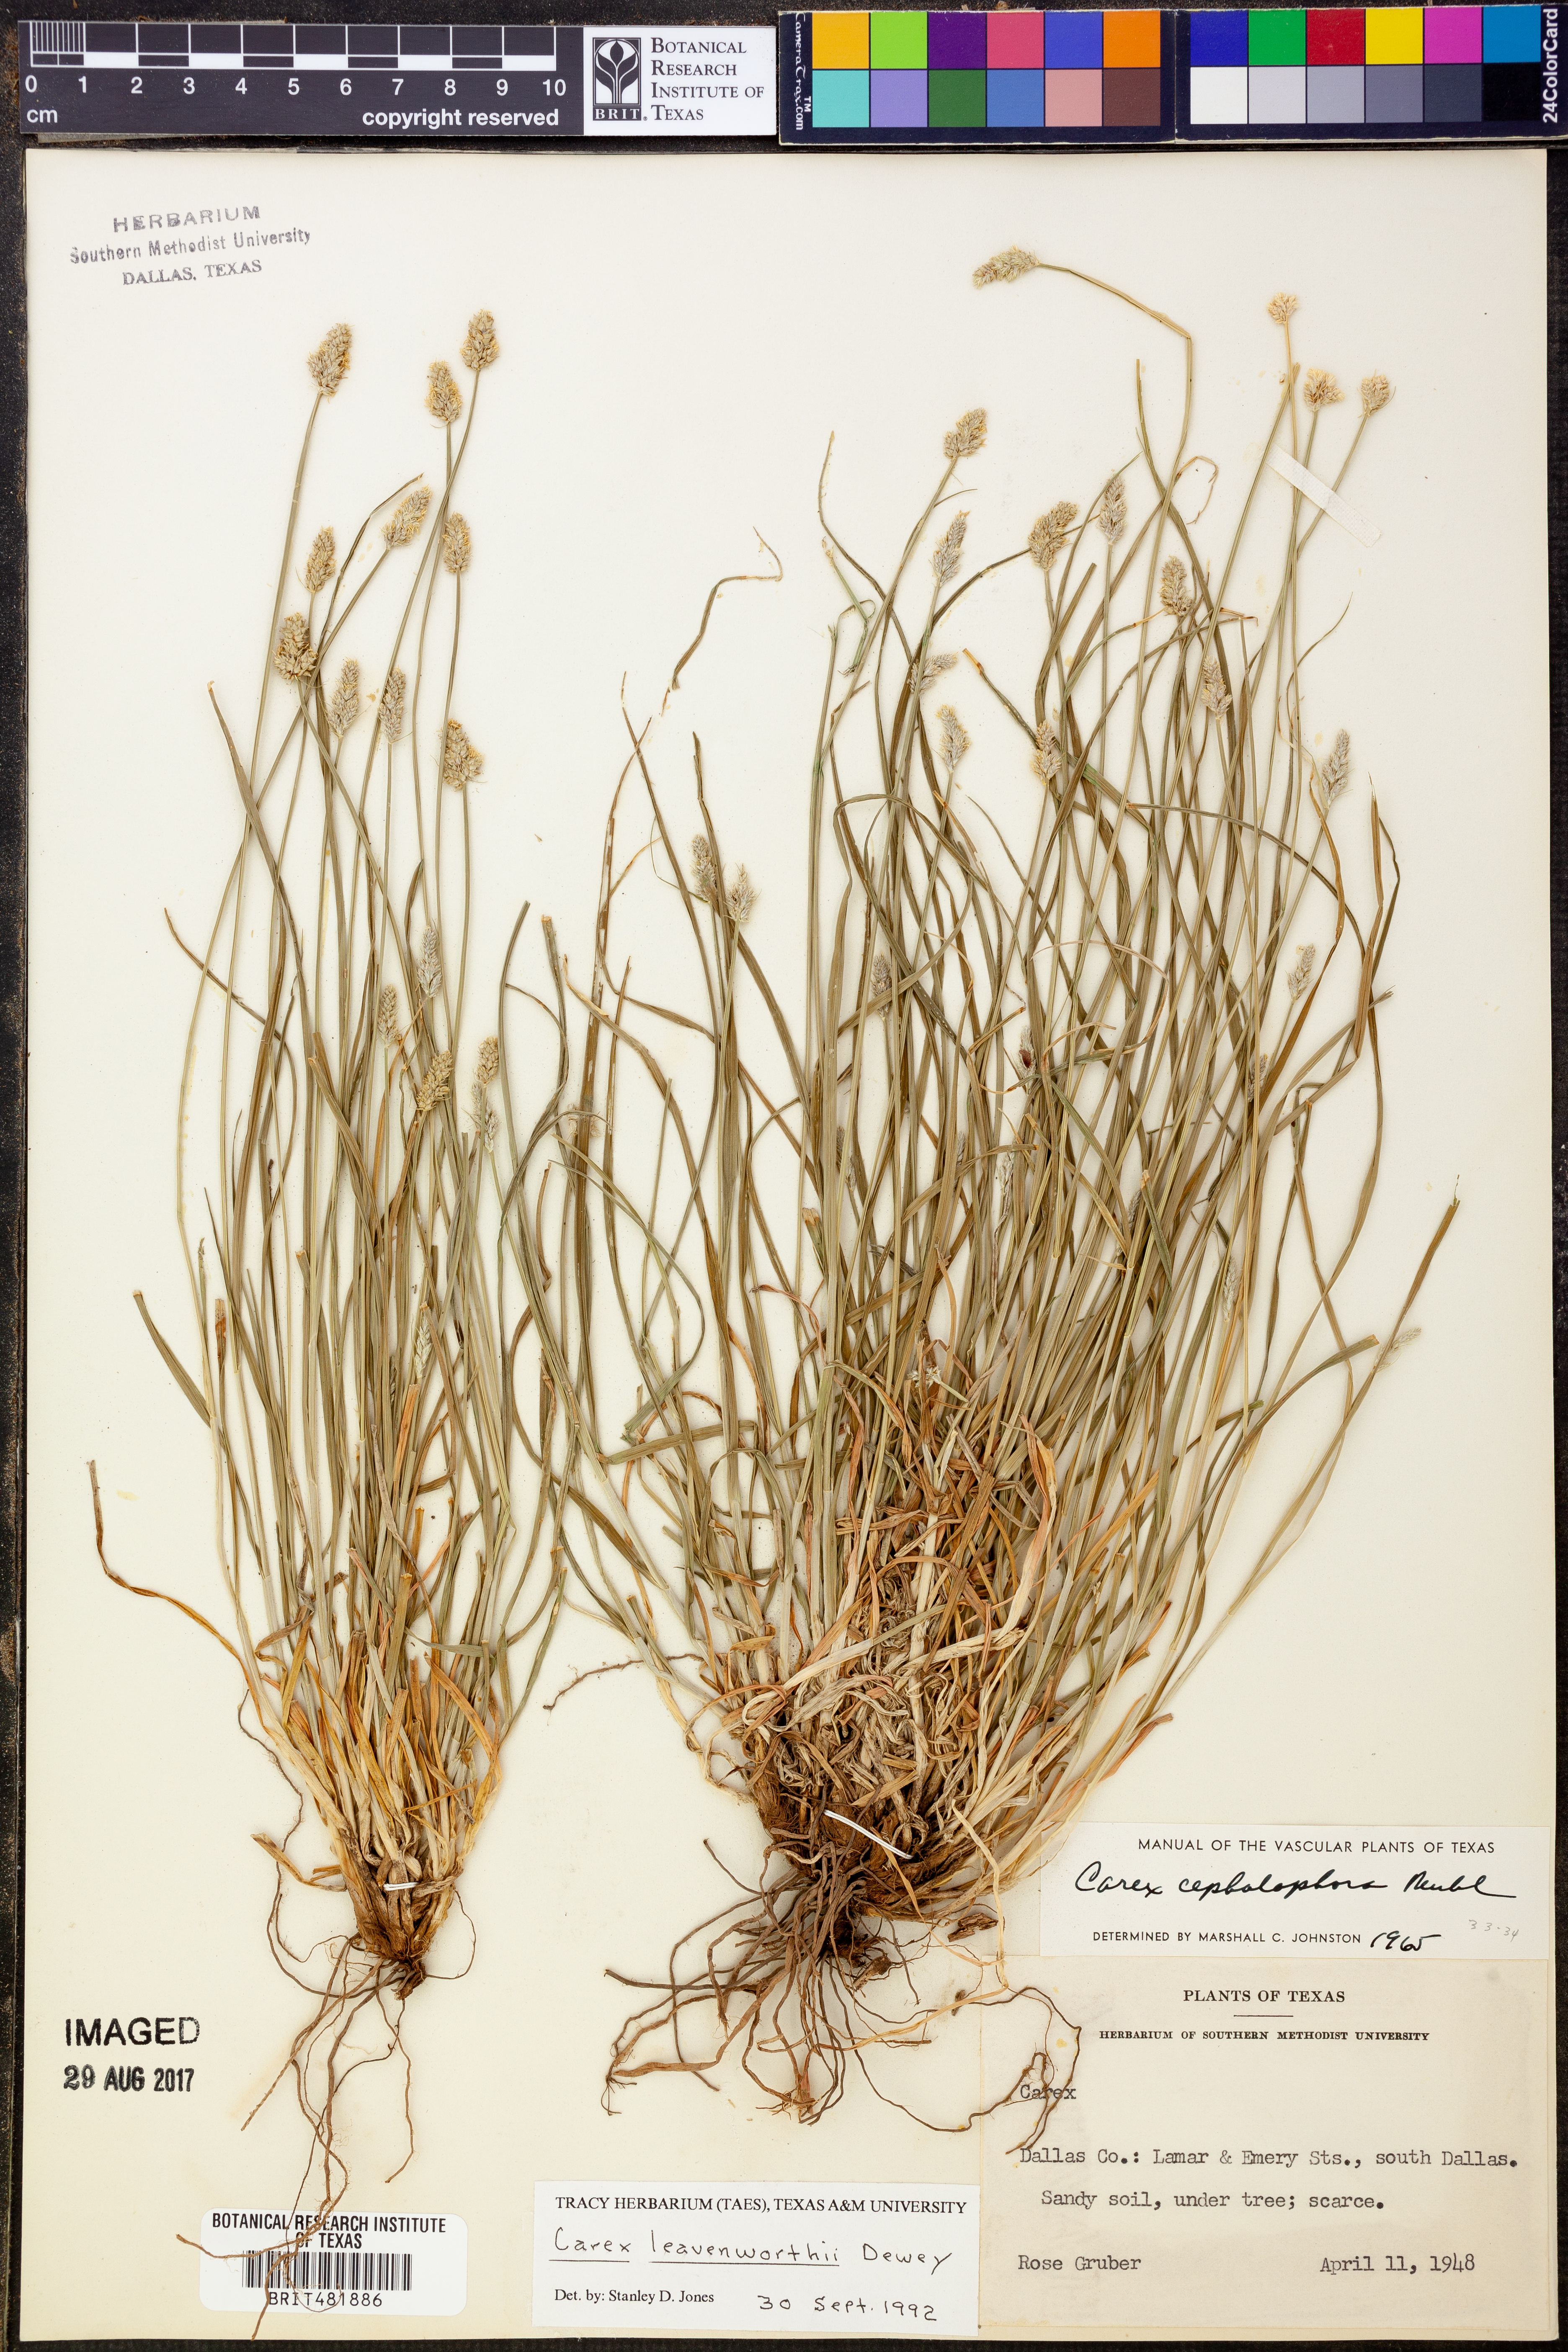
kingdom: Plantae
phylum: Tracheophyta
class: Liliopsida
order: Poales
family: Cyperaceae
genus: Carex
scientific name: Carex leavenworthii
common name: Leavenworth's bracted sedge
